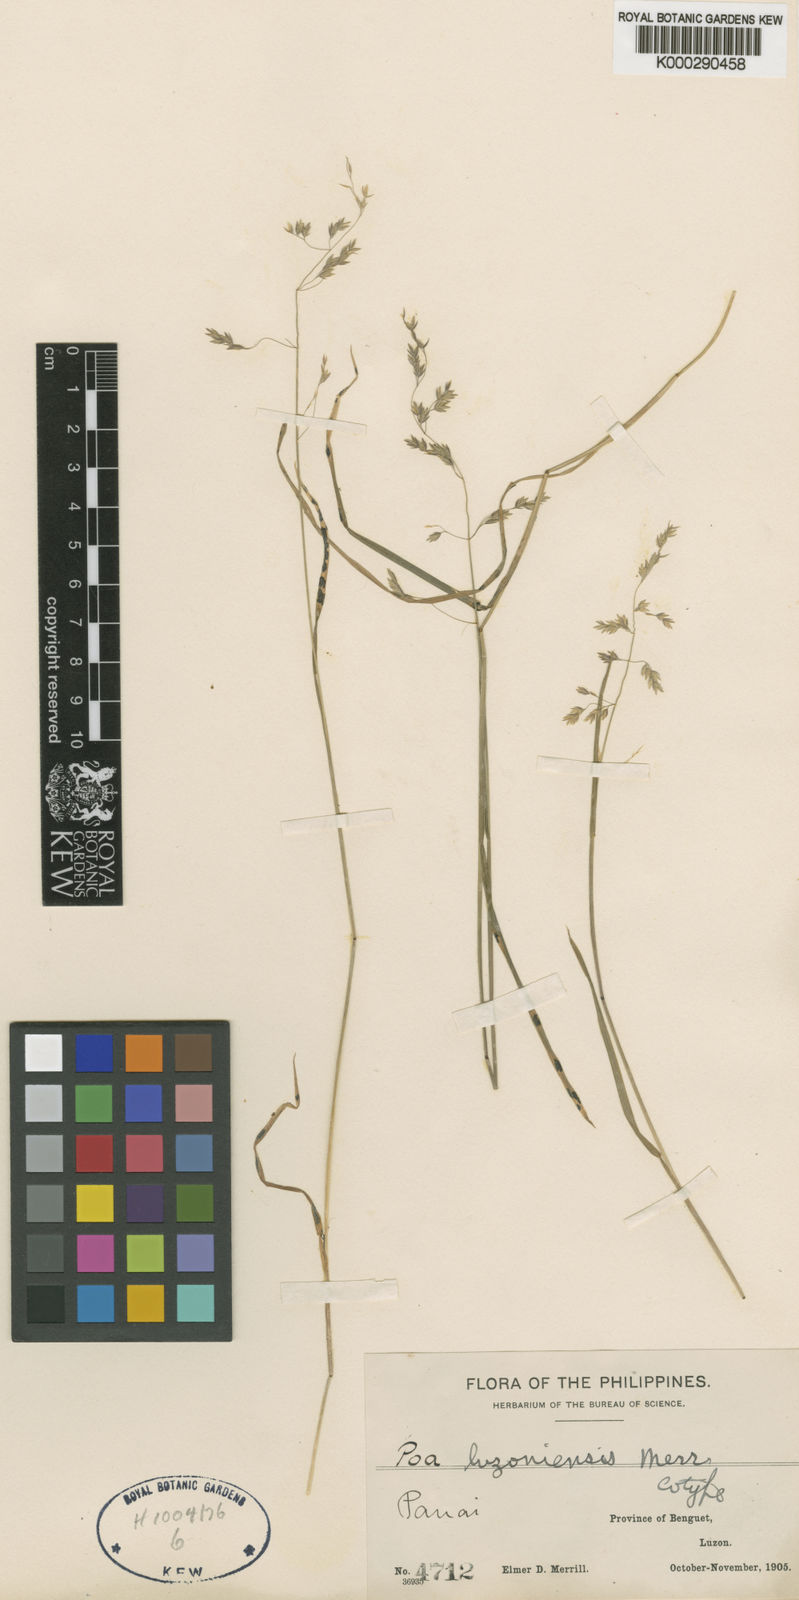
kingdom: Plantae
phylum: Tracheophyta
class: Liliopsida
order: Poales
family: Poaceae
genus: Poa
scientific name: Poa pratensis
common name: Kentucky bluegrass
